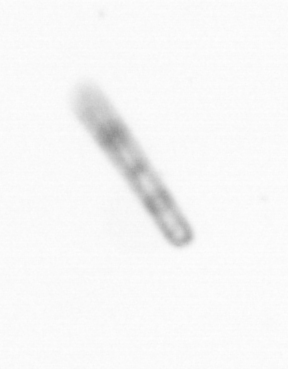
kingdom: Chromista
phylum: Ochrophyta
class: Bacillariophyceae
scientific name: Bacillariophyceae
